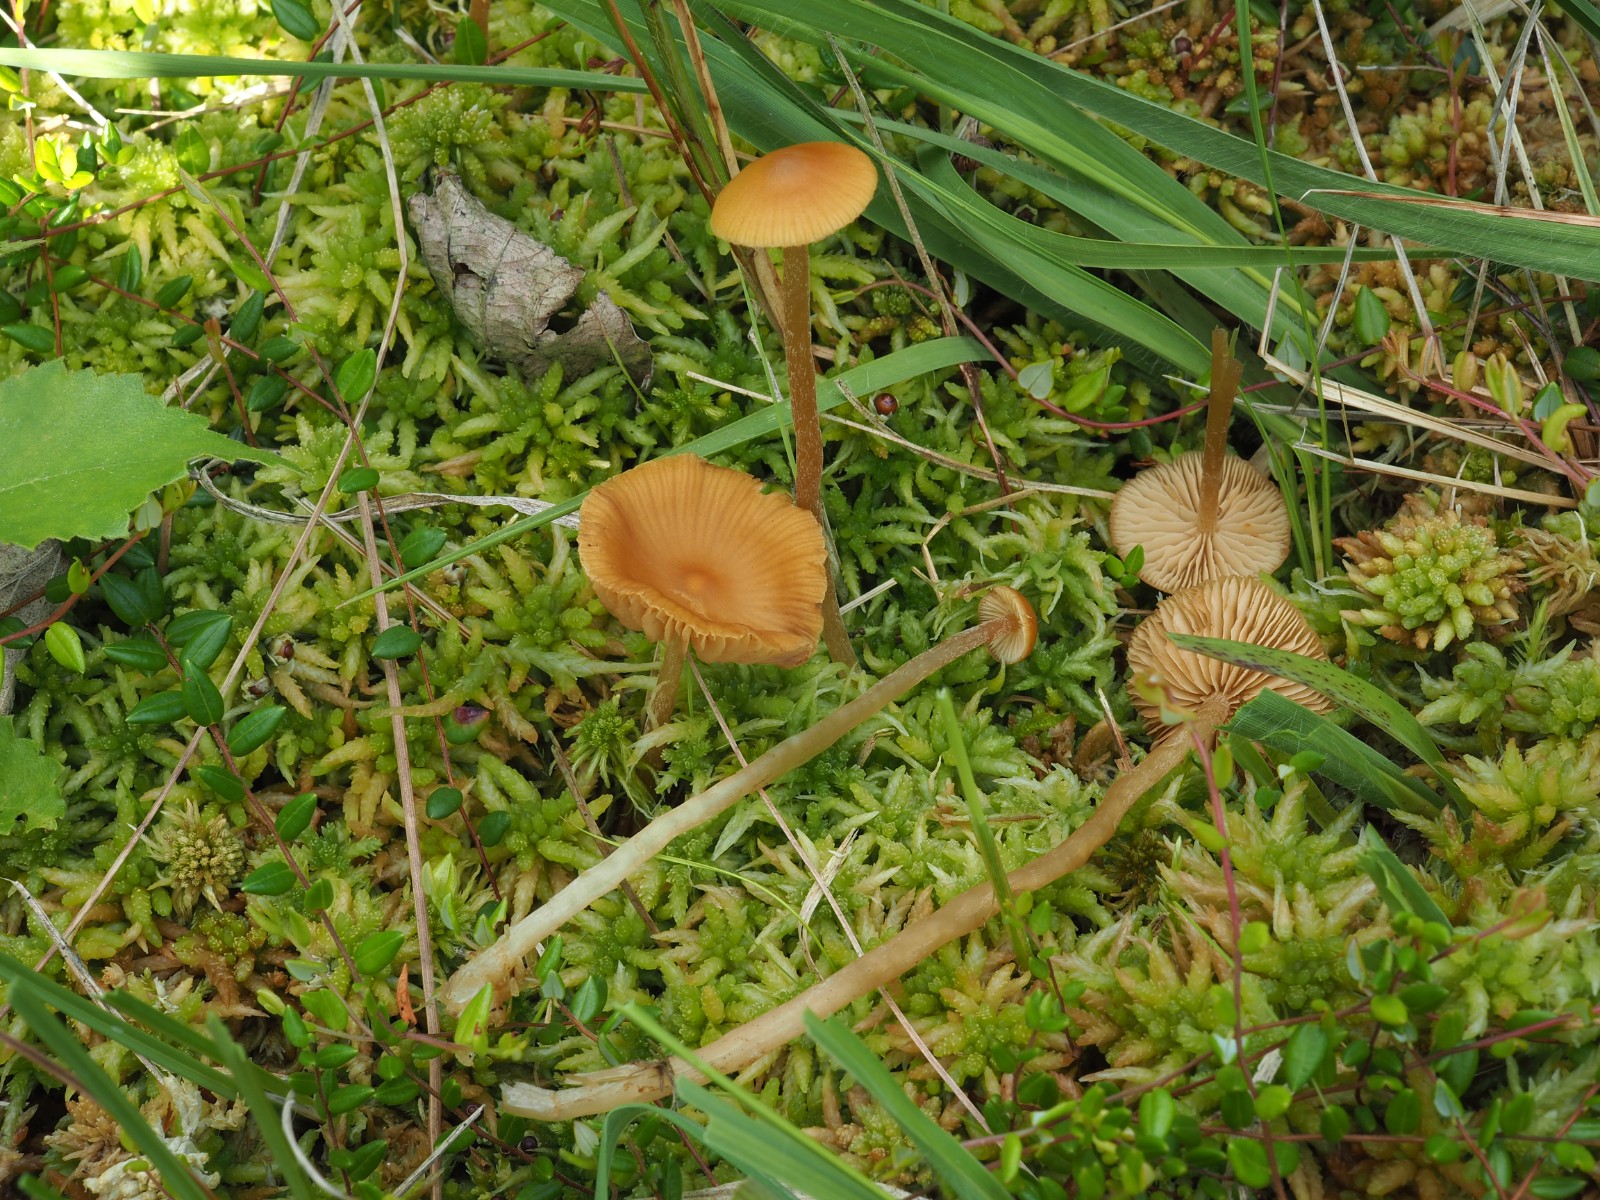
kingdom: Fungi
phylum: Basidiomycota
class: Agaricomycetes
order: Agaricales
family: Hymenogastraceae
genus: Galerina
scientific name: Galerina hybrida
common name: hængesæk-hjelmhat
